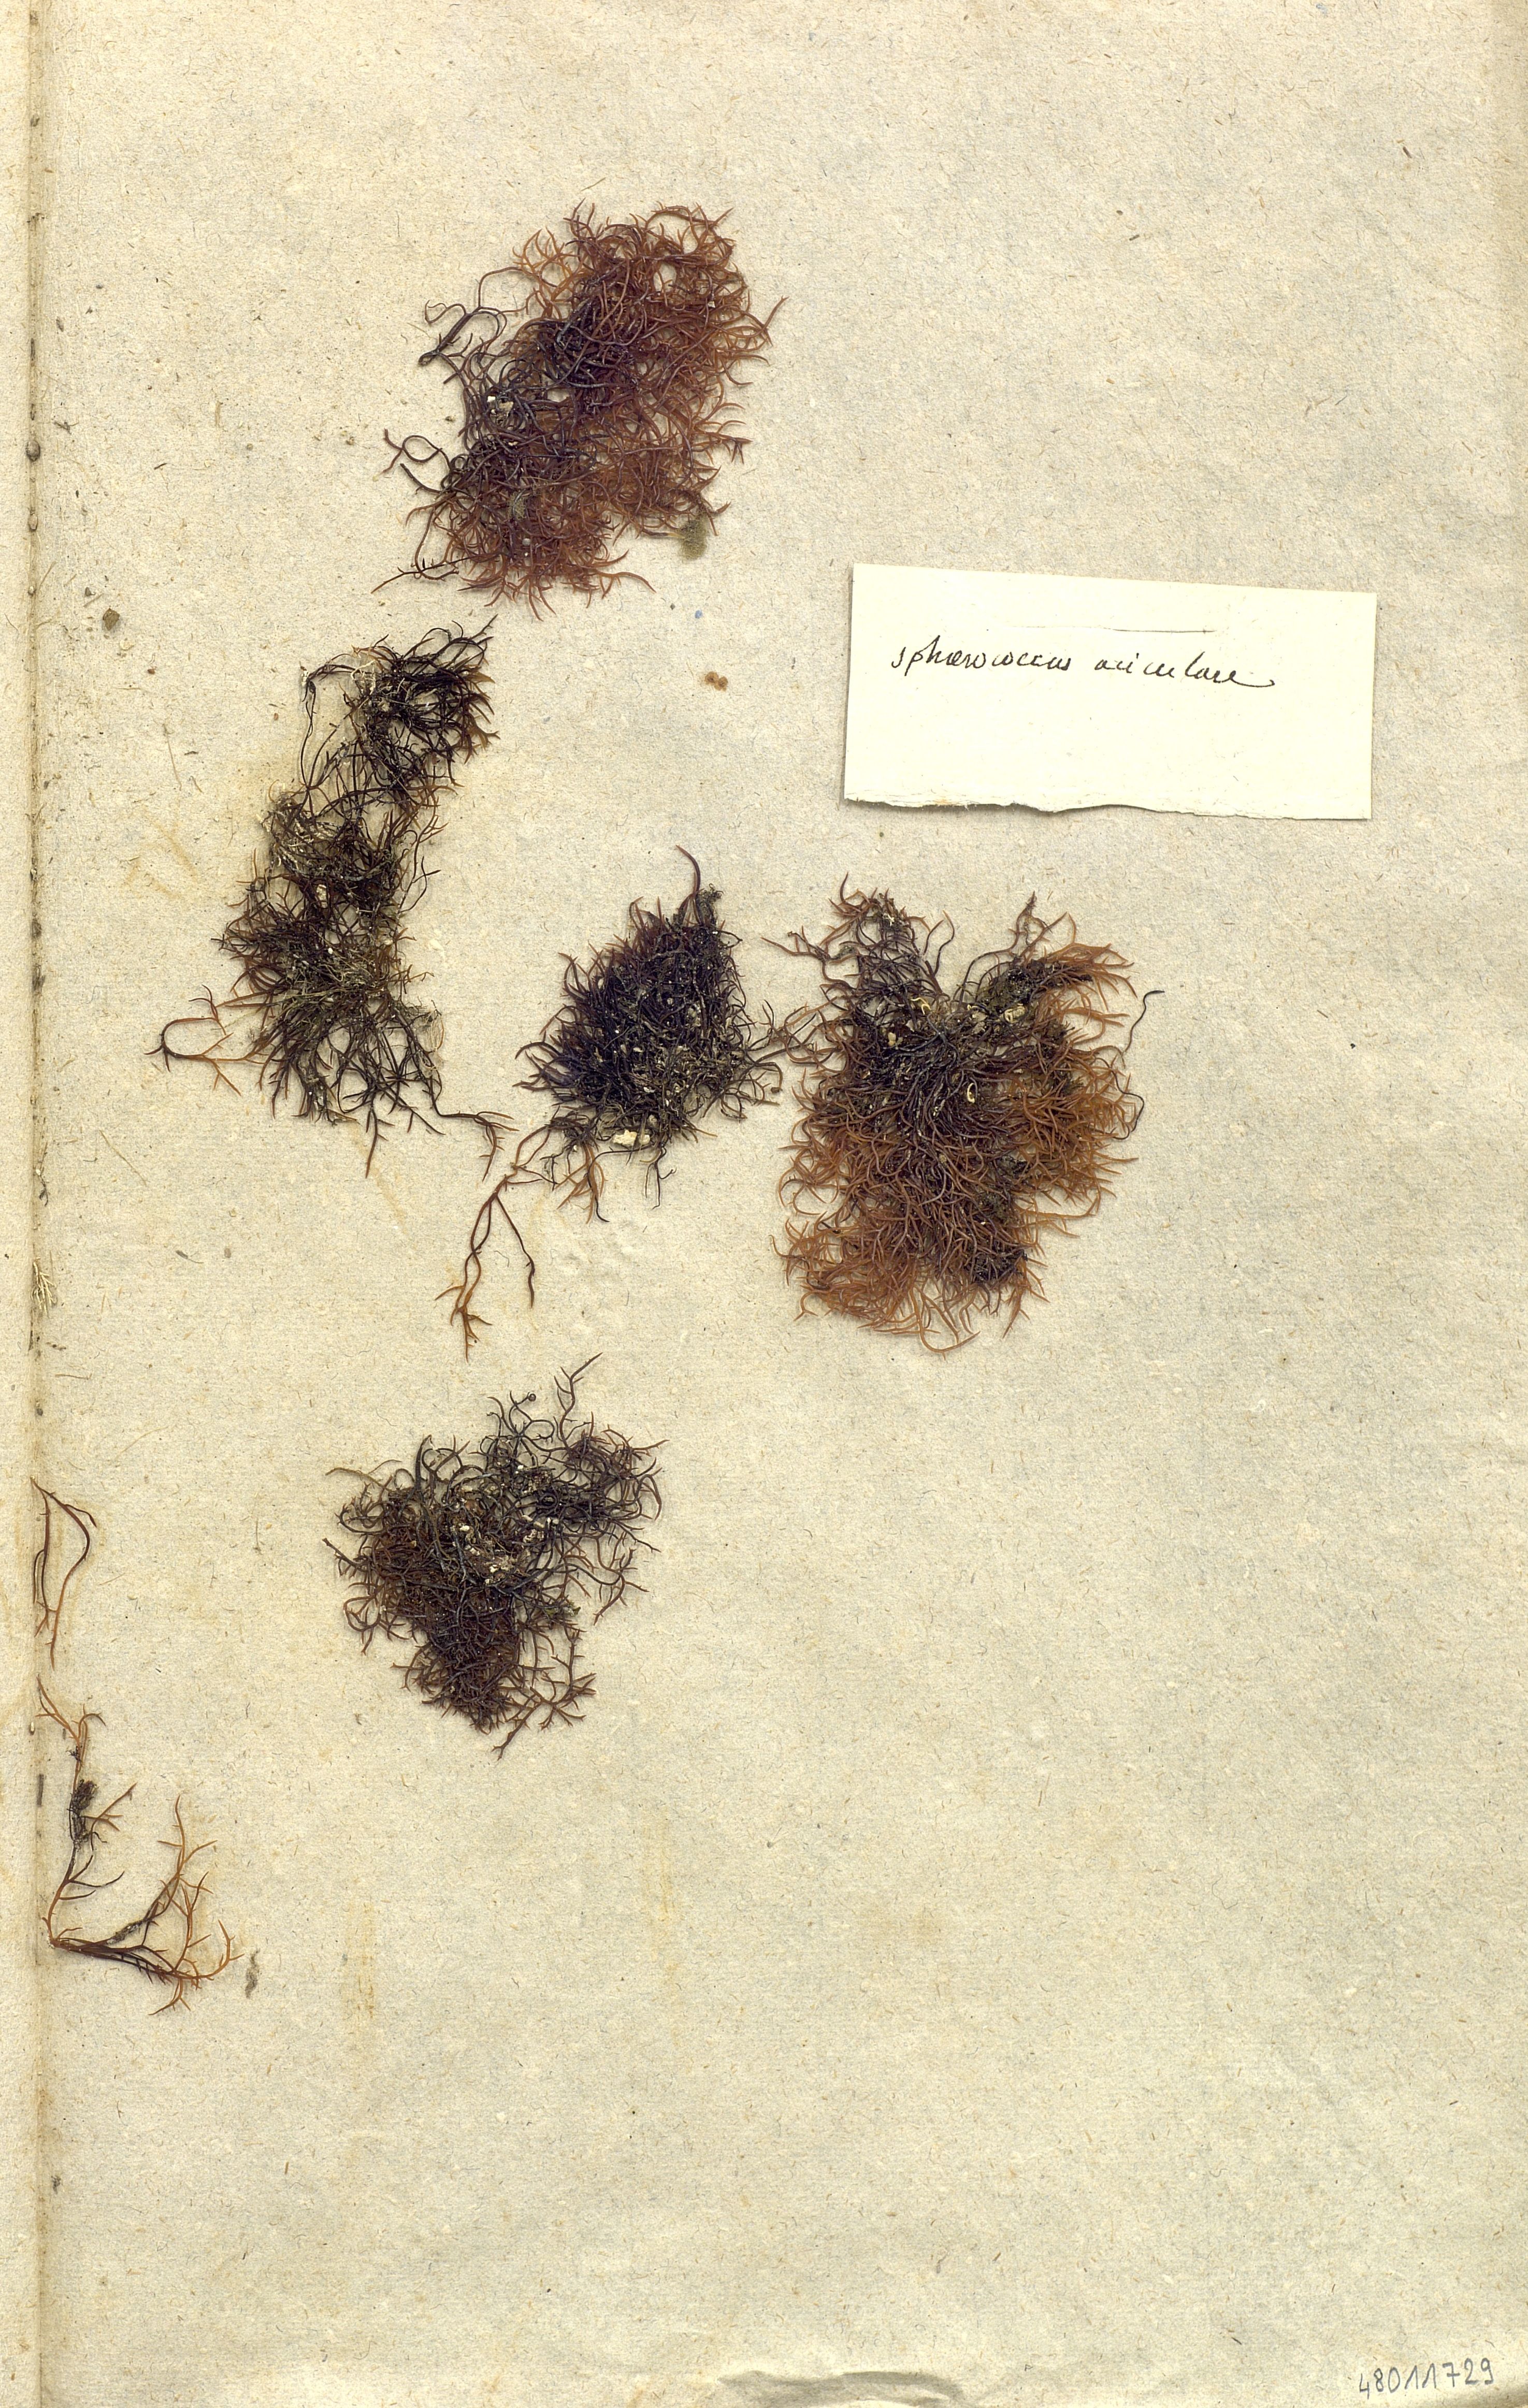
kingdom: Plantae
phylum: Rhodophyta
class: Florideophyceae
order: Gigartinales
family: Gigartinaceae
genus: Chondracanthus
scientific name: Chondracanthus acicularis
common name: Creephorn
